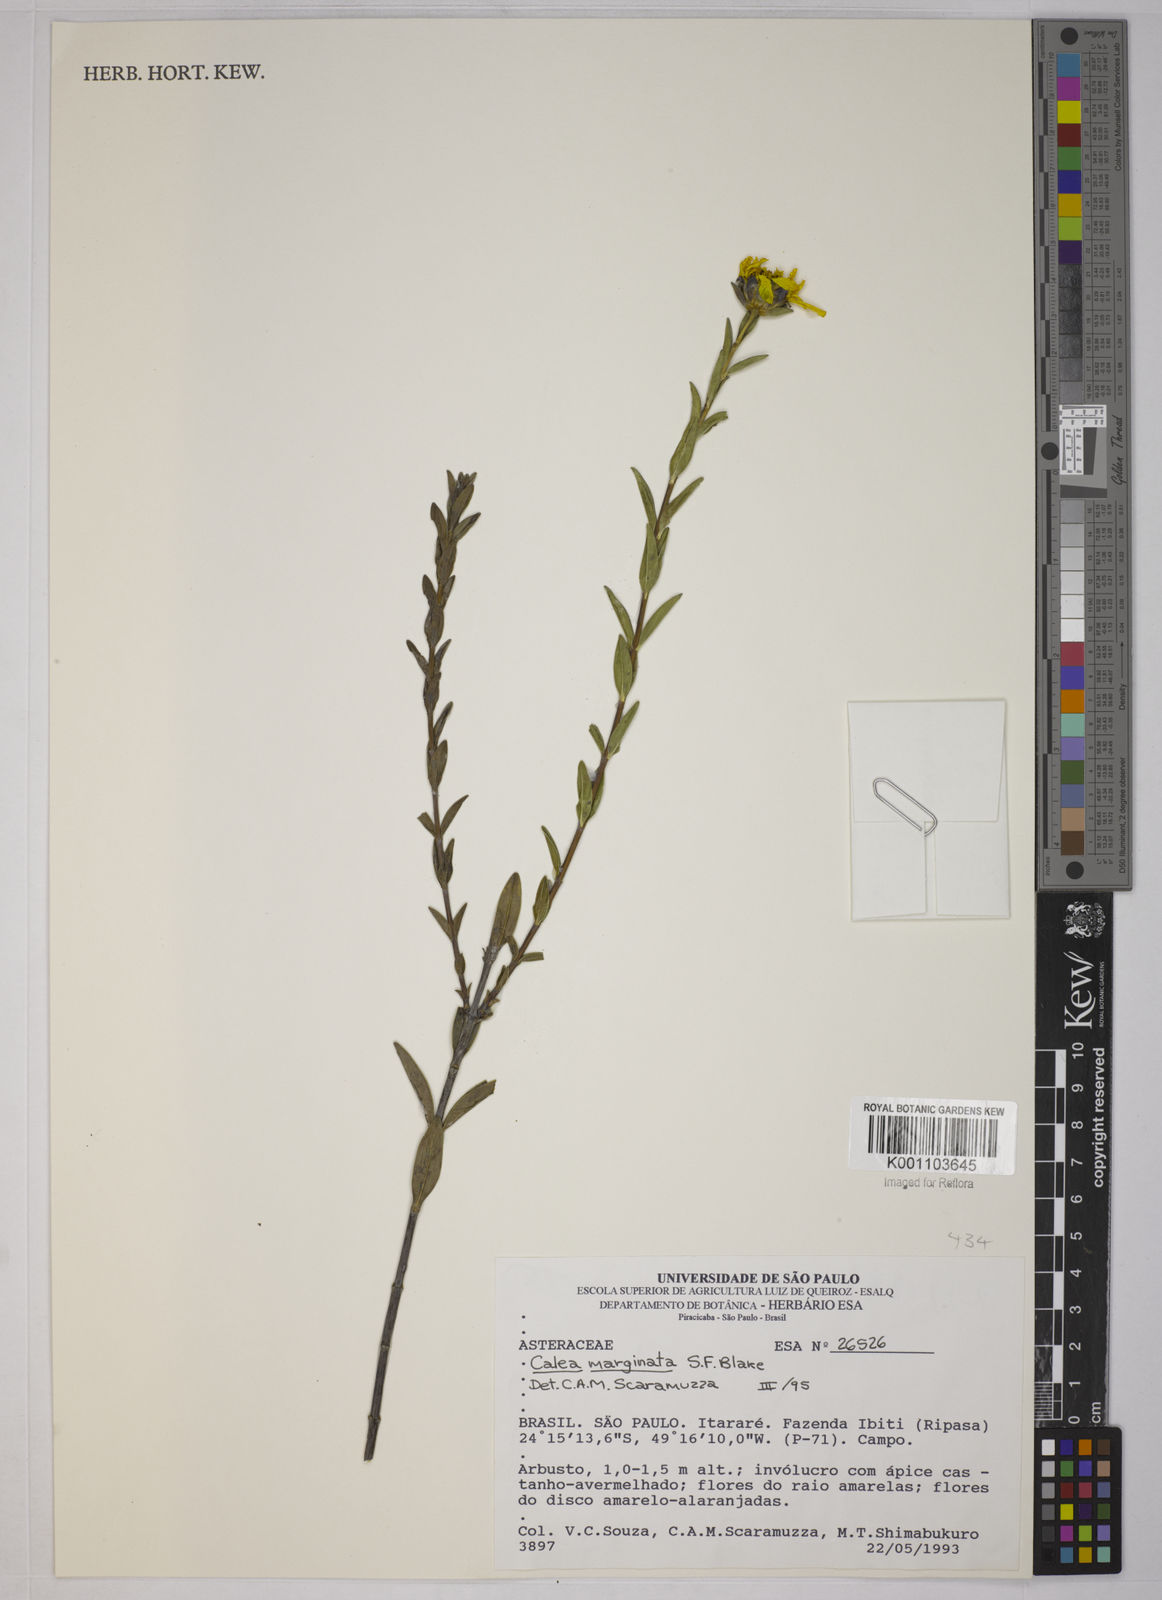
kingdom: Plantae
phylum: Tracheophyta
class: Magnoliopsida
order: Asterales
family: Asteraceae
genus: Calea
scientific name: Calea marginata
